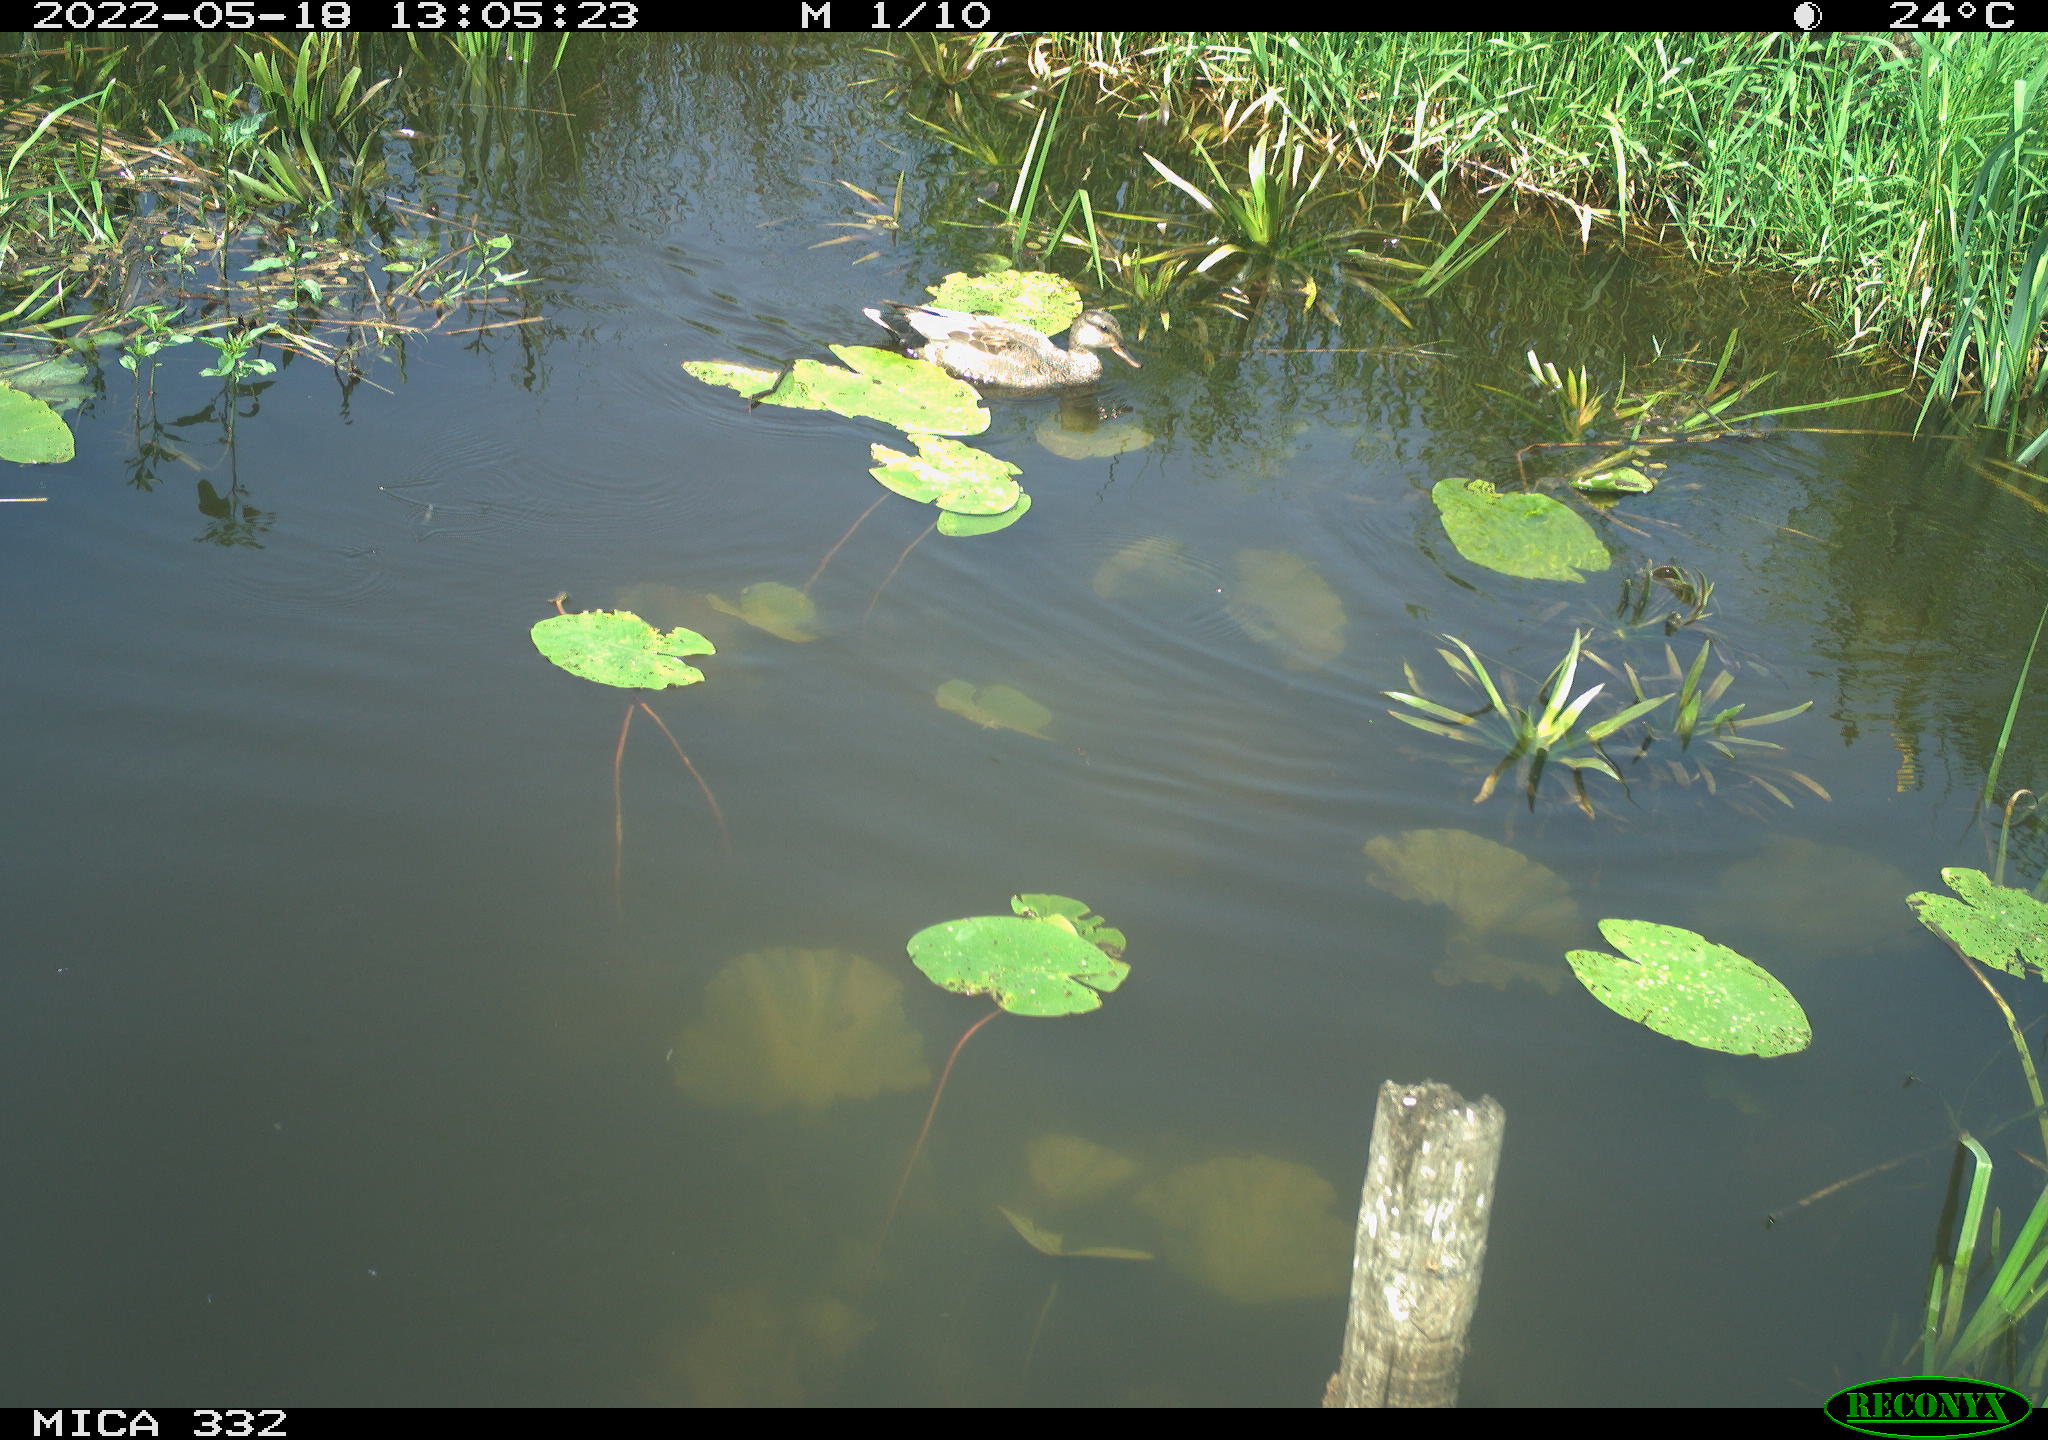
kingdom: Animalia
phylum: Chordata
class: Aves
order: Anseriformes
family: Anatidae
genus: Mareca
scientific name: Mareca strepera
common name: Gadwall
